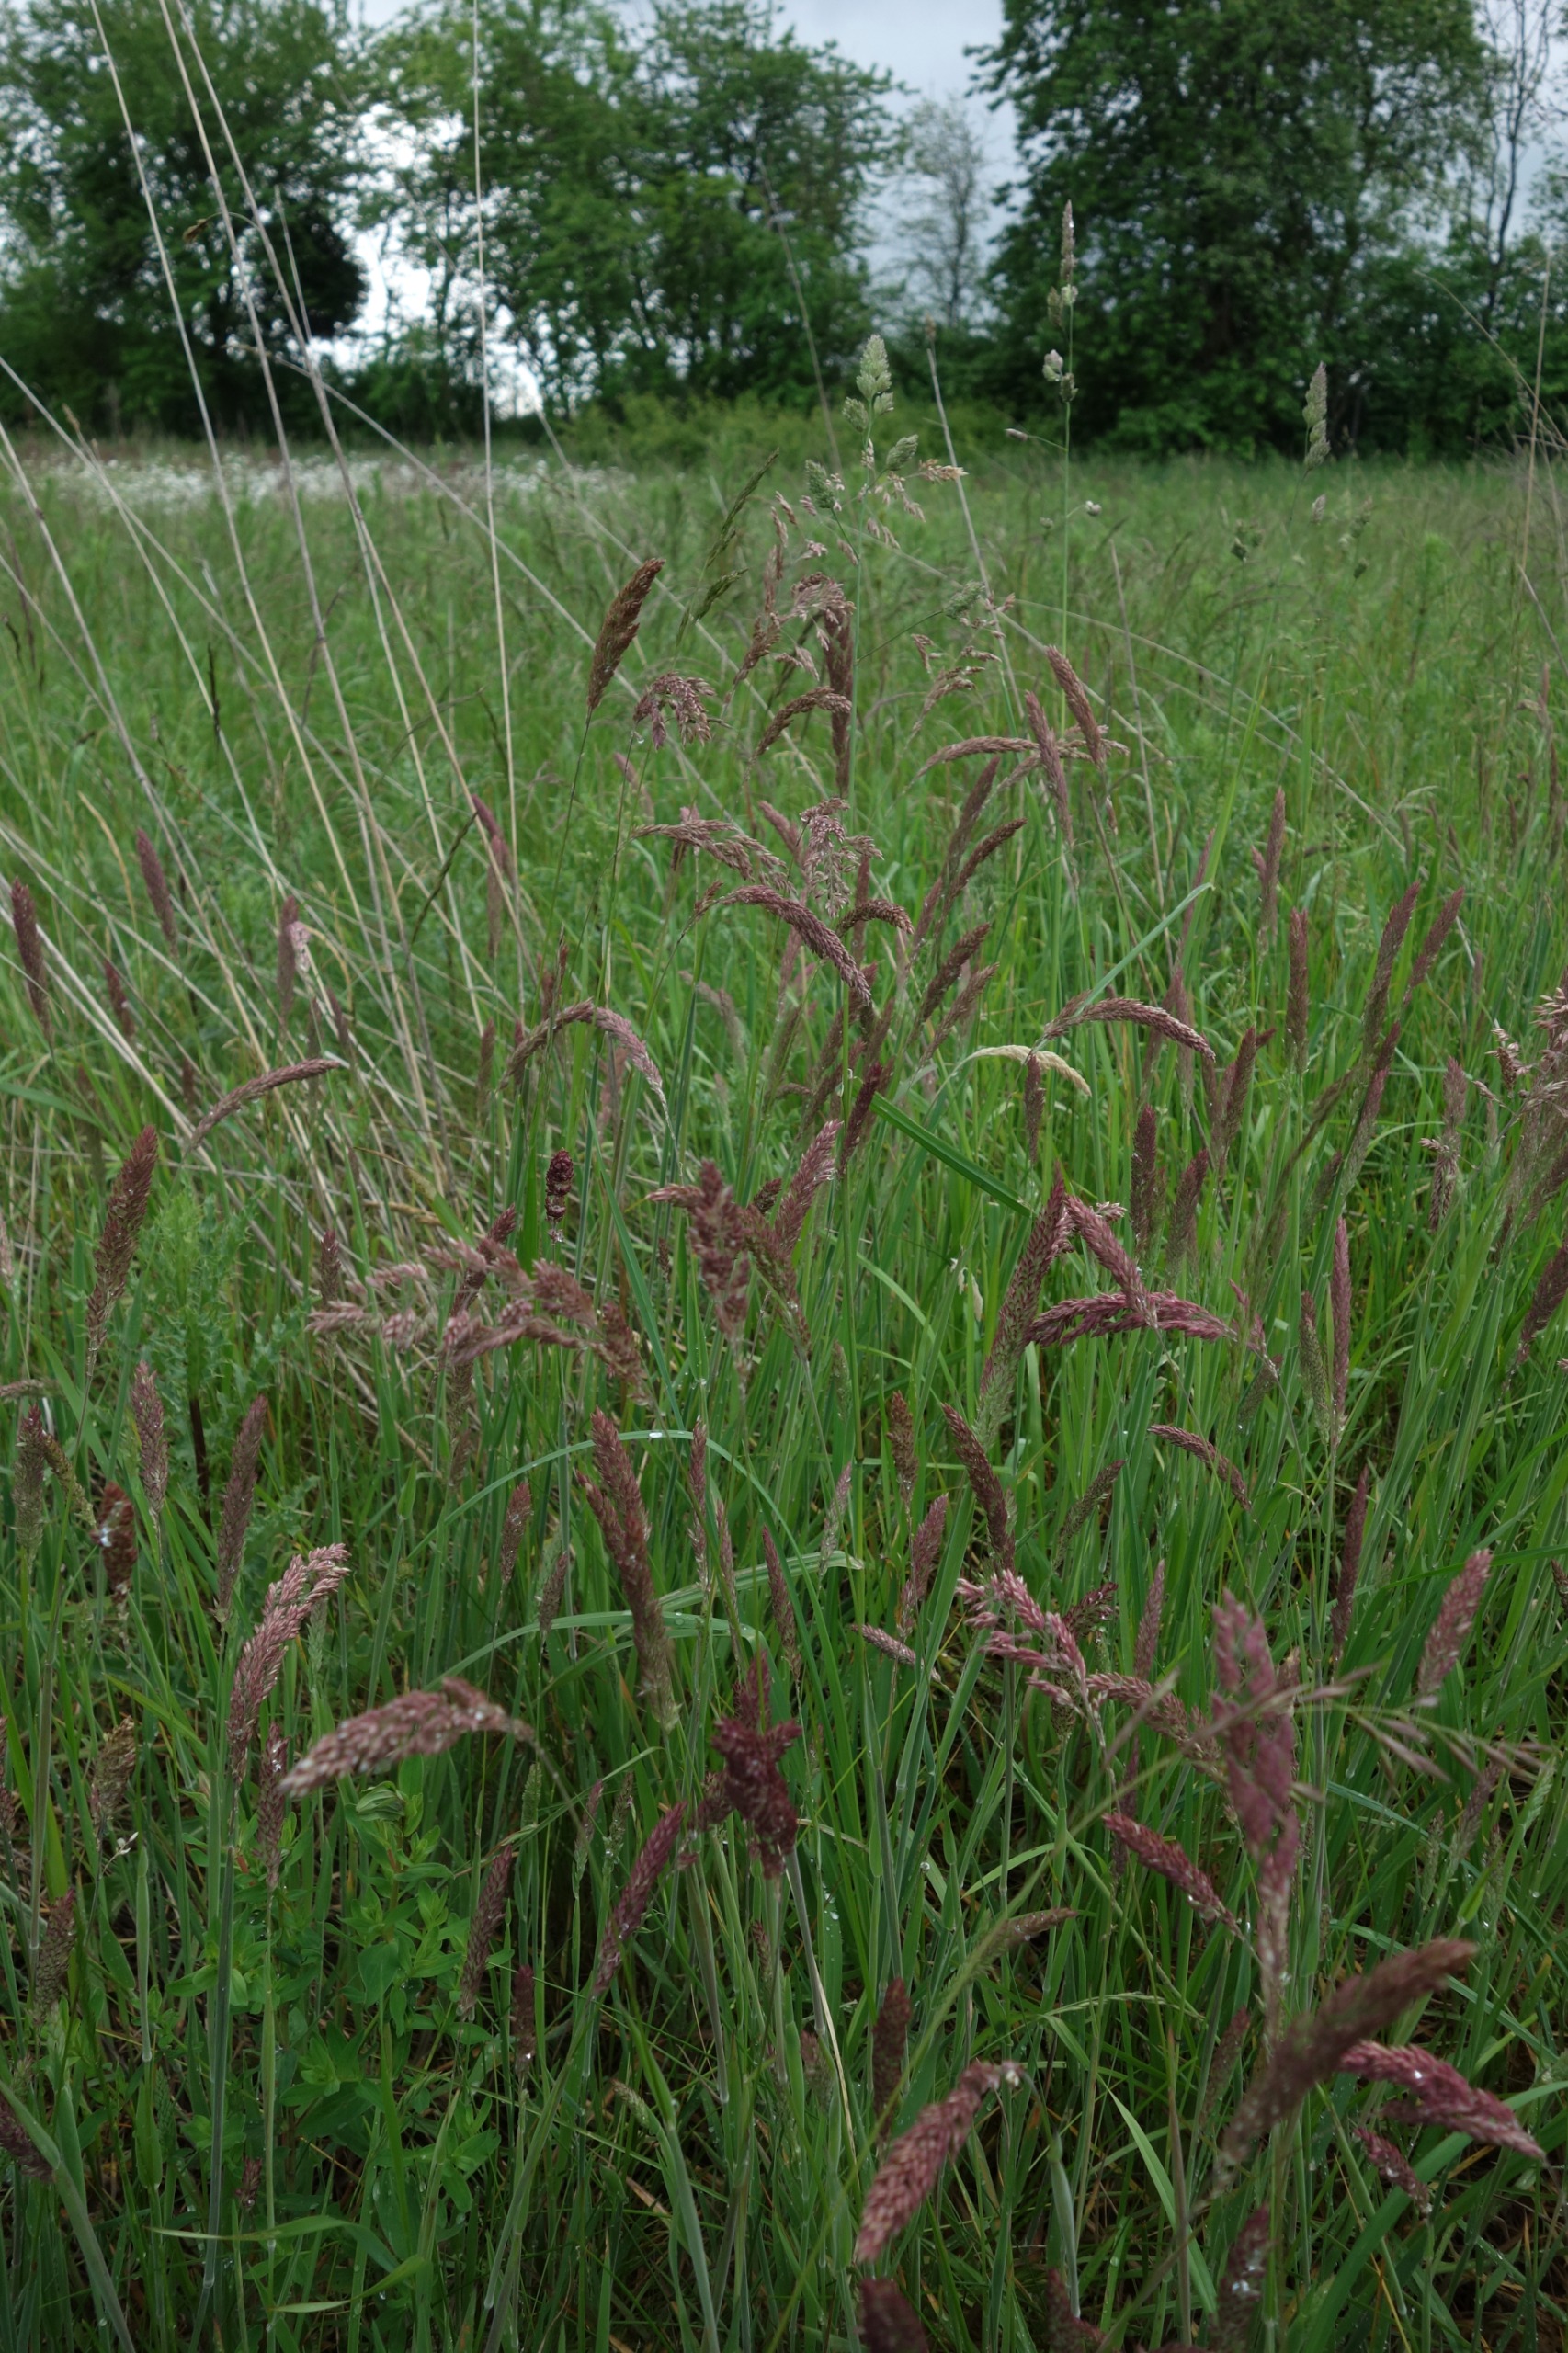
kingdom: Plantae
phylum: Tracheophyta
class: Liliopsida
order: Poales
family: Poaceae
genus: Holcus
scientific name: Holcus lanatus
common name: Fløjlsgræs
